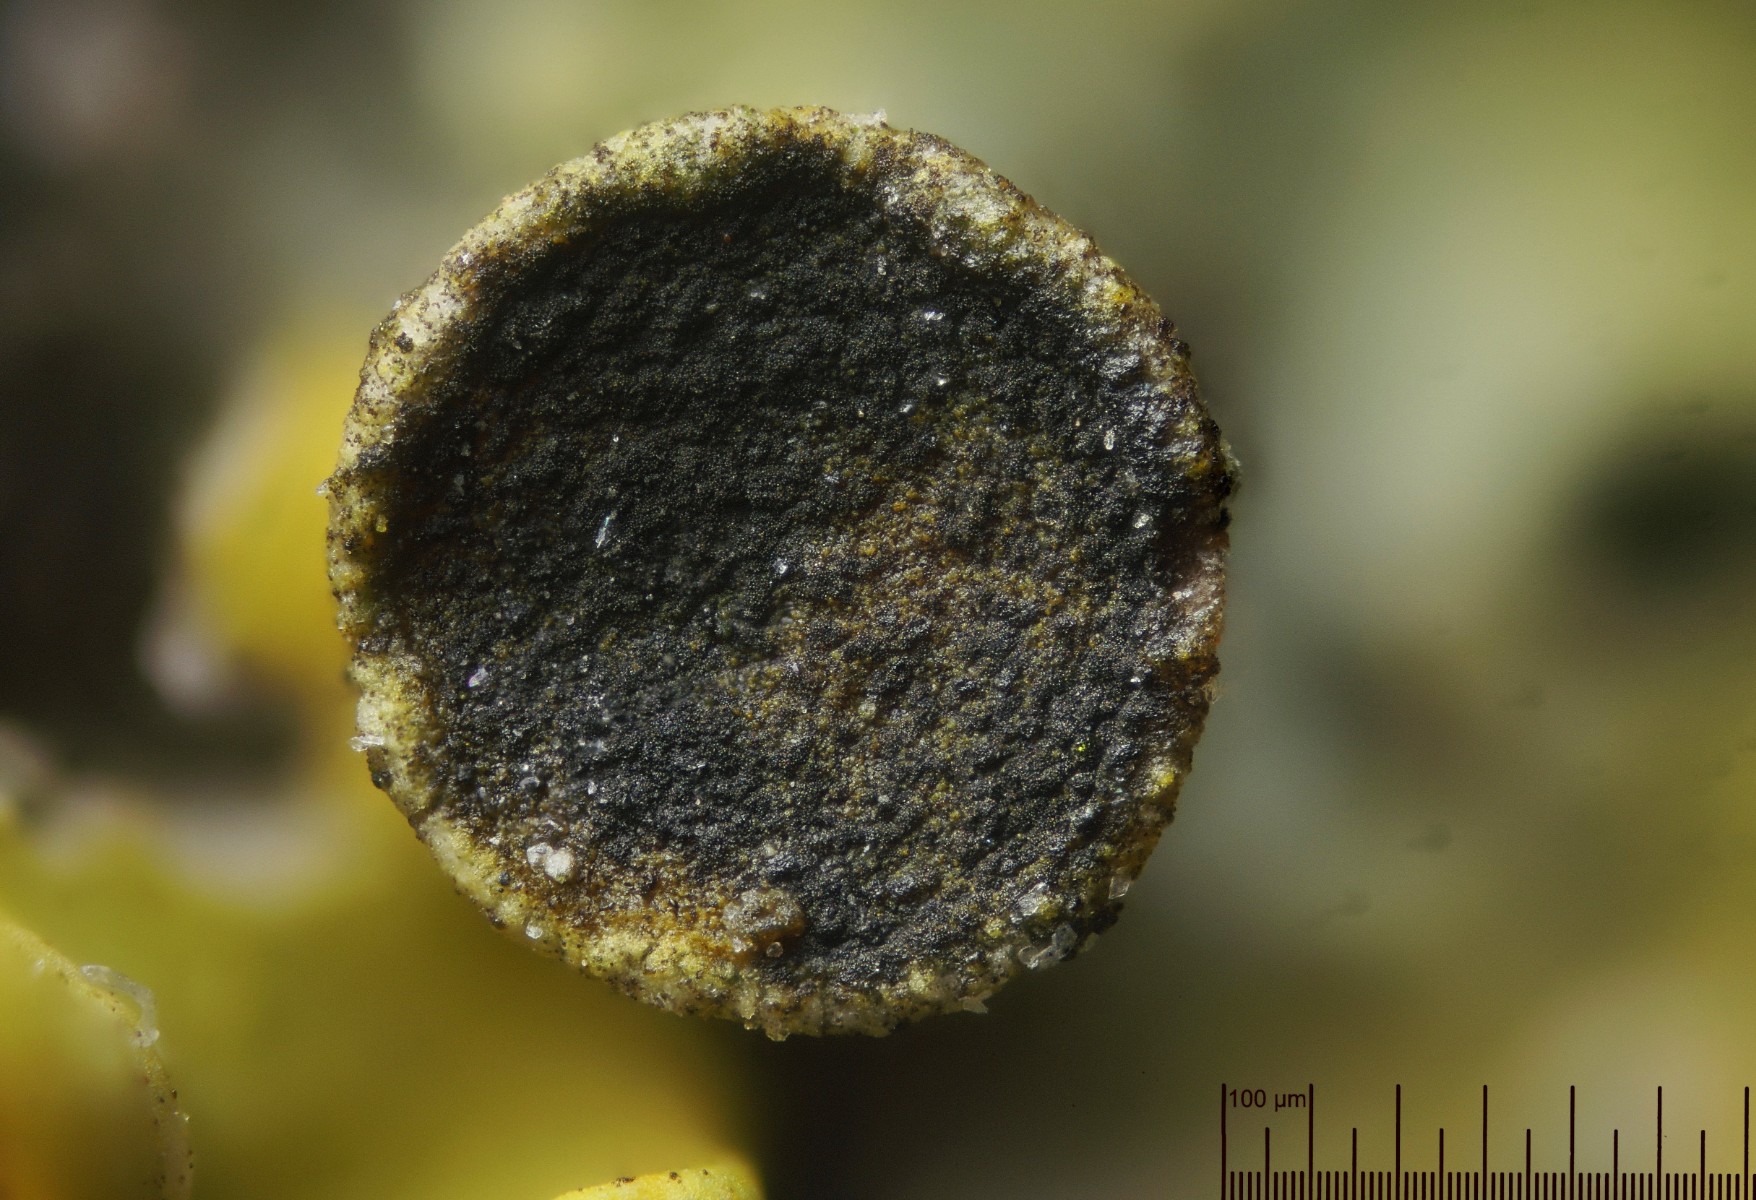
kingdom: Fungi
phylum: Ascomycota
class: Dothideomycetes
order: Mycosphaerellales
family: Teratosphaeriaceae
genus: Xanthoriicola
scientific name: Xanthoriicola physciae
